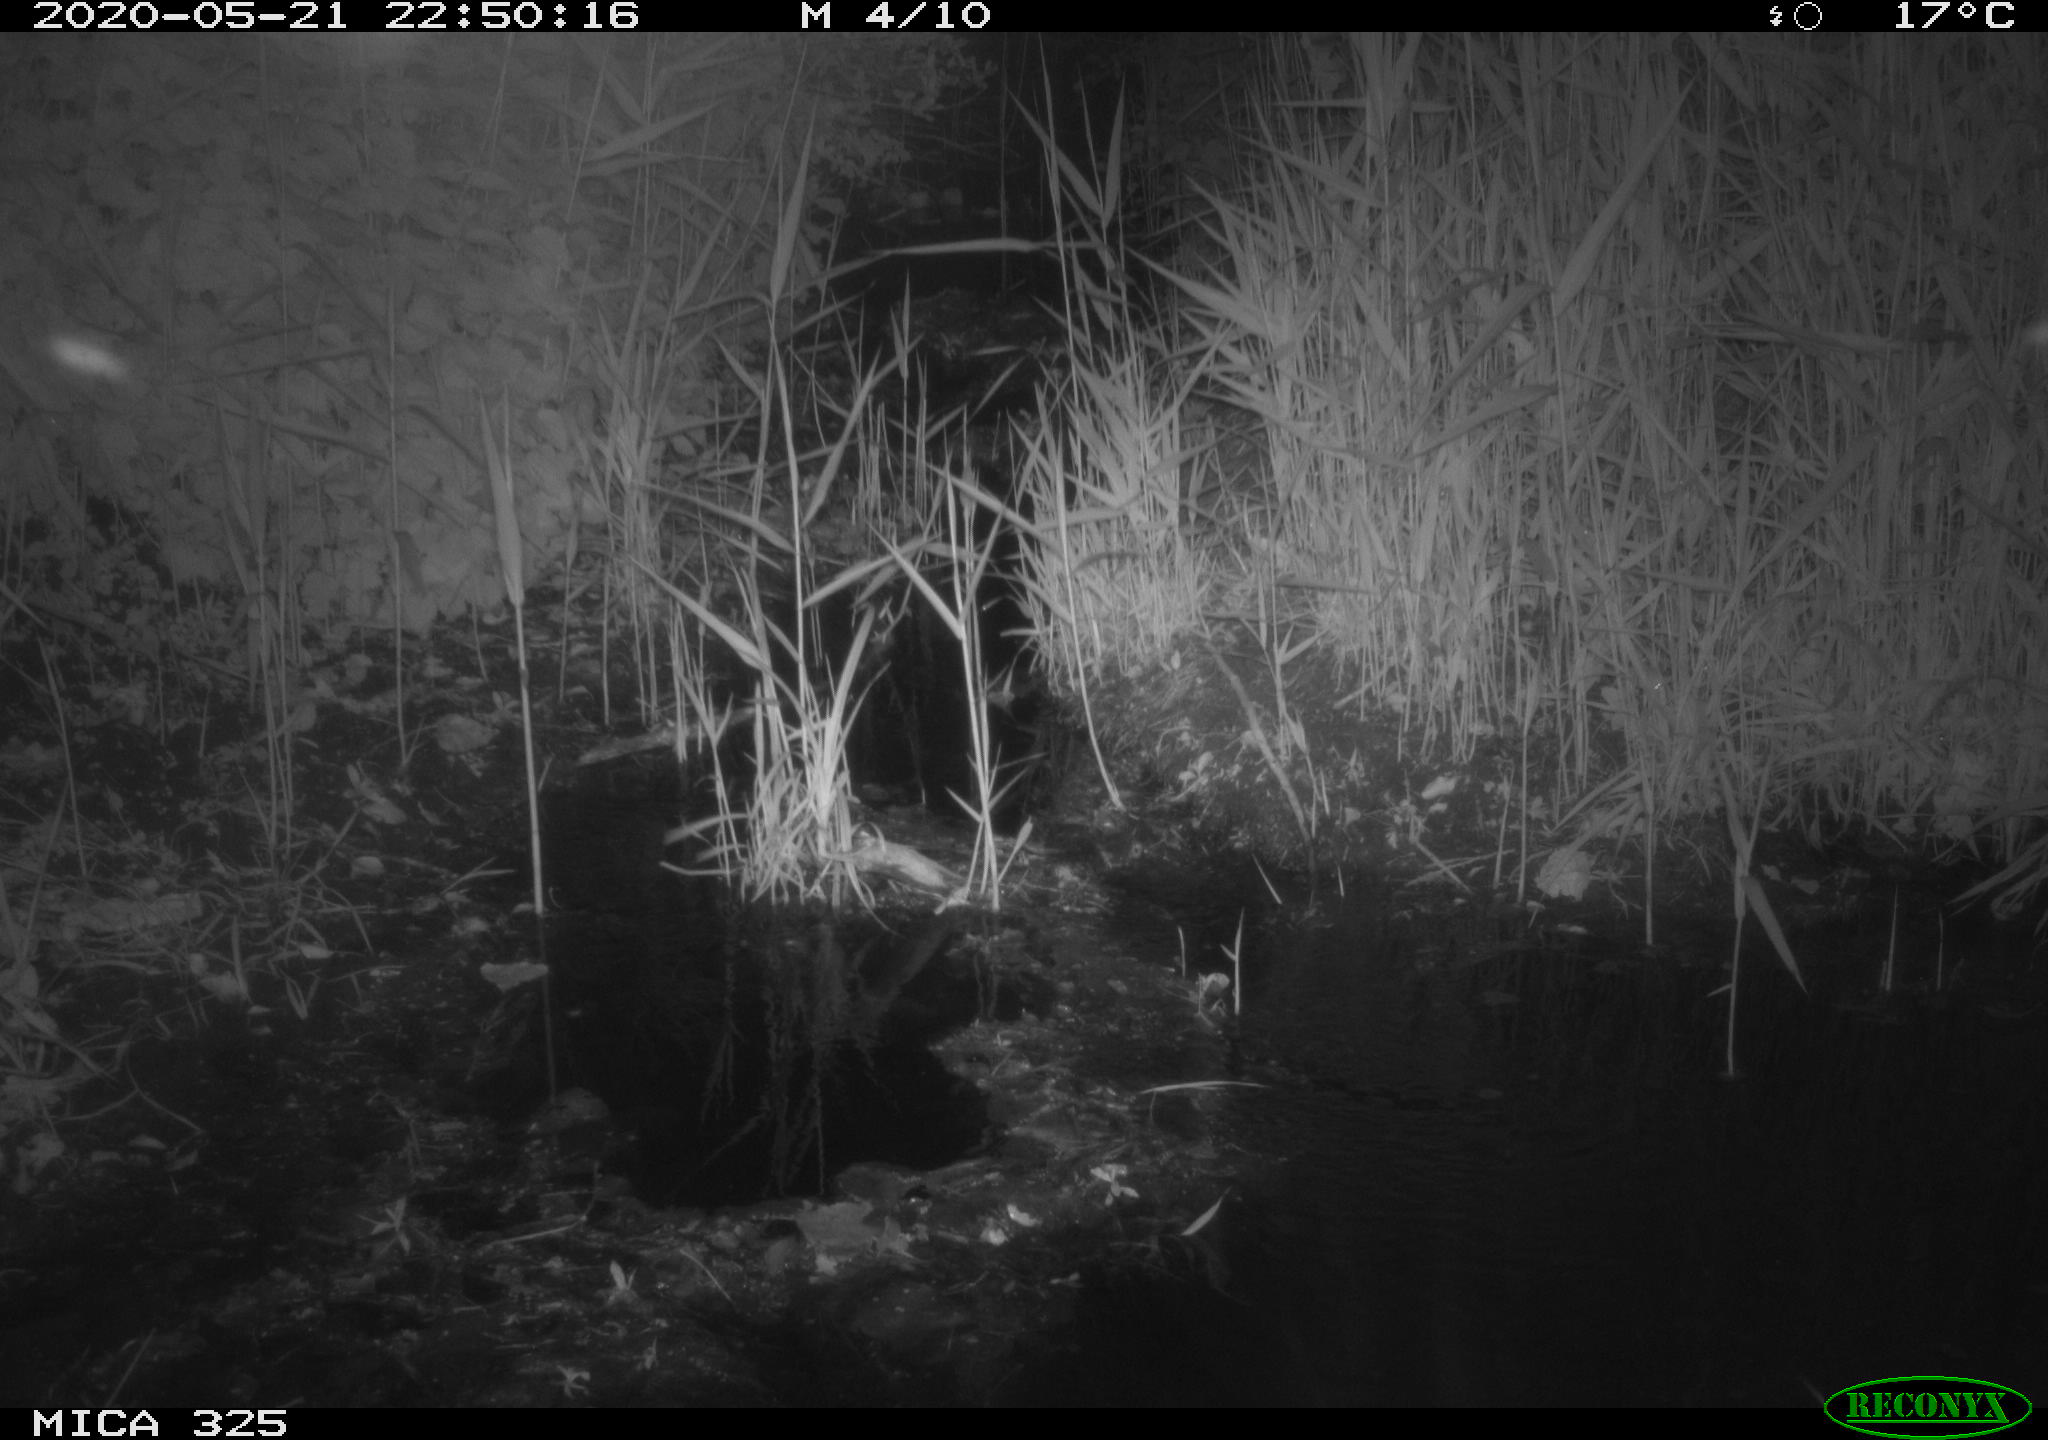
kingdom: Animalia
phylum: Chordata
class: Aves
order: Pelecaniformes
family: Ardeidae
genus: Ardea
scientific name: Ardea cinerea
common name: Grey heron
